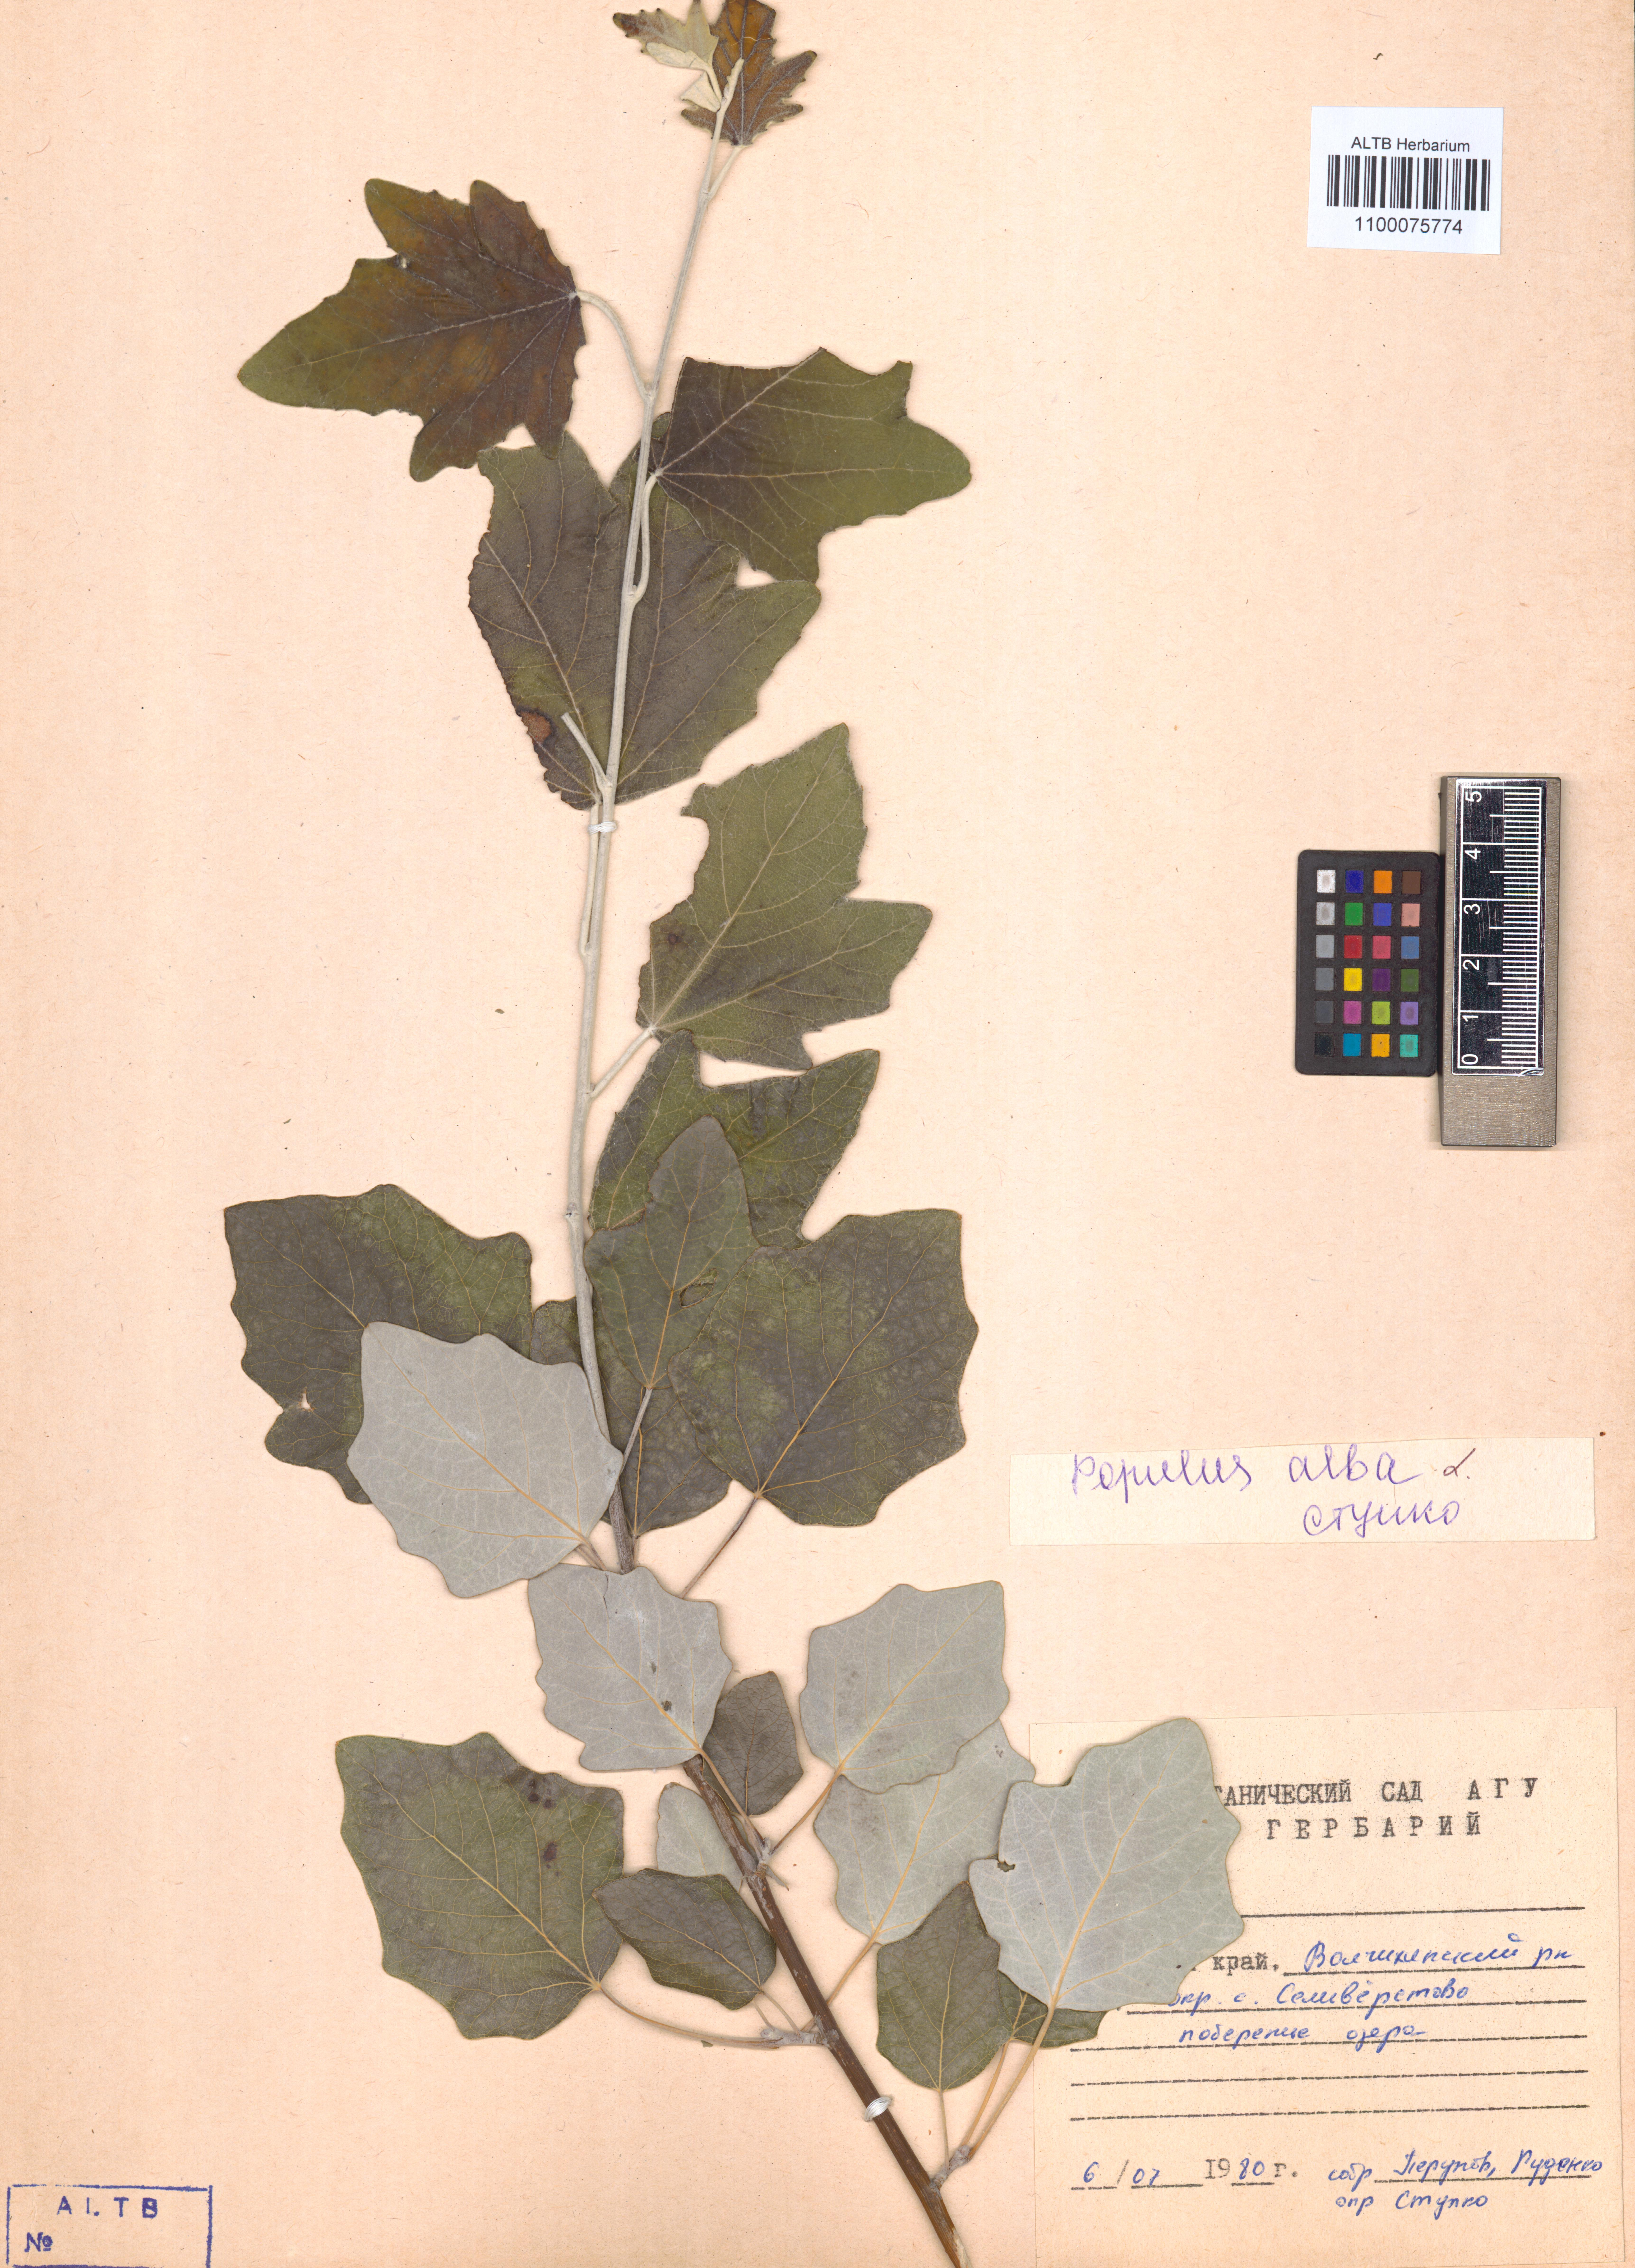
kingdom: Plantae
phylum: Tracheophyta
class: Magnoliopsida
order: Malpighiales
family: Salicaceae
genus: Populus
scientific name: Populus alba
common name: White poplar
